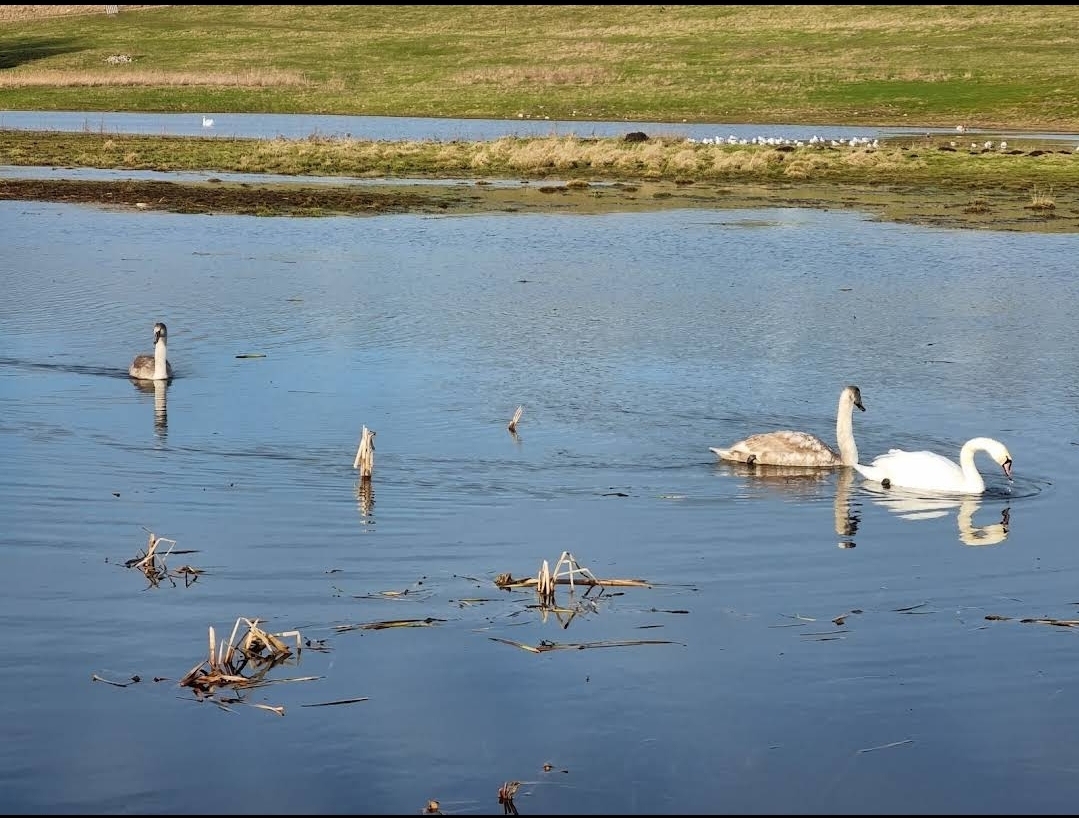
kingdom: Animalia
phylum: Chordata
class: Aves
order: Anseriformes
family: Anatidae
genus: Cygnus
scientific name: Cygnus olor
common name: Knopsvane
